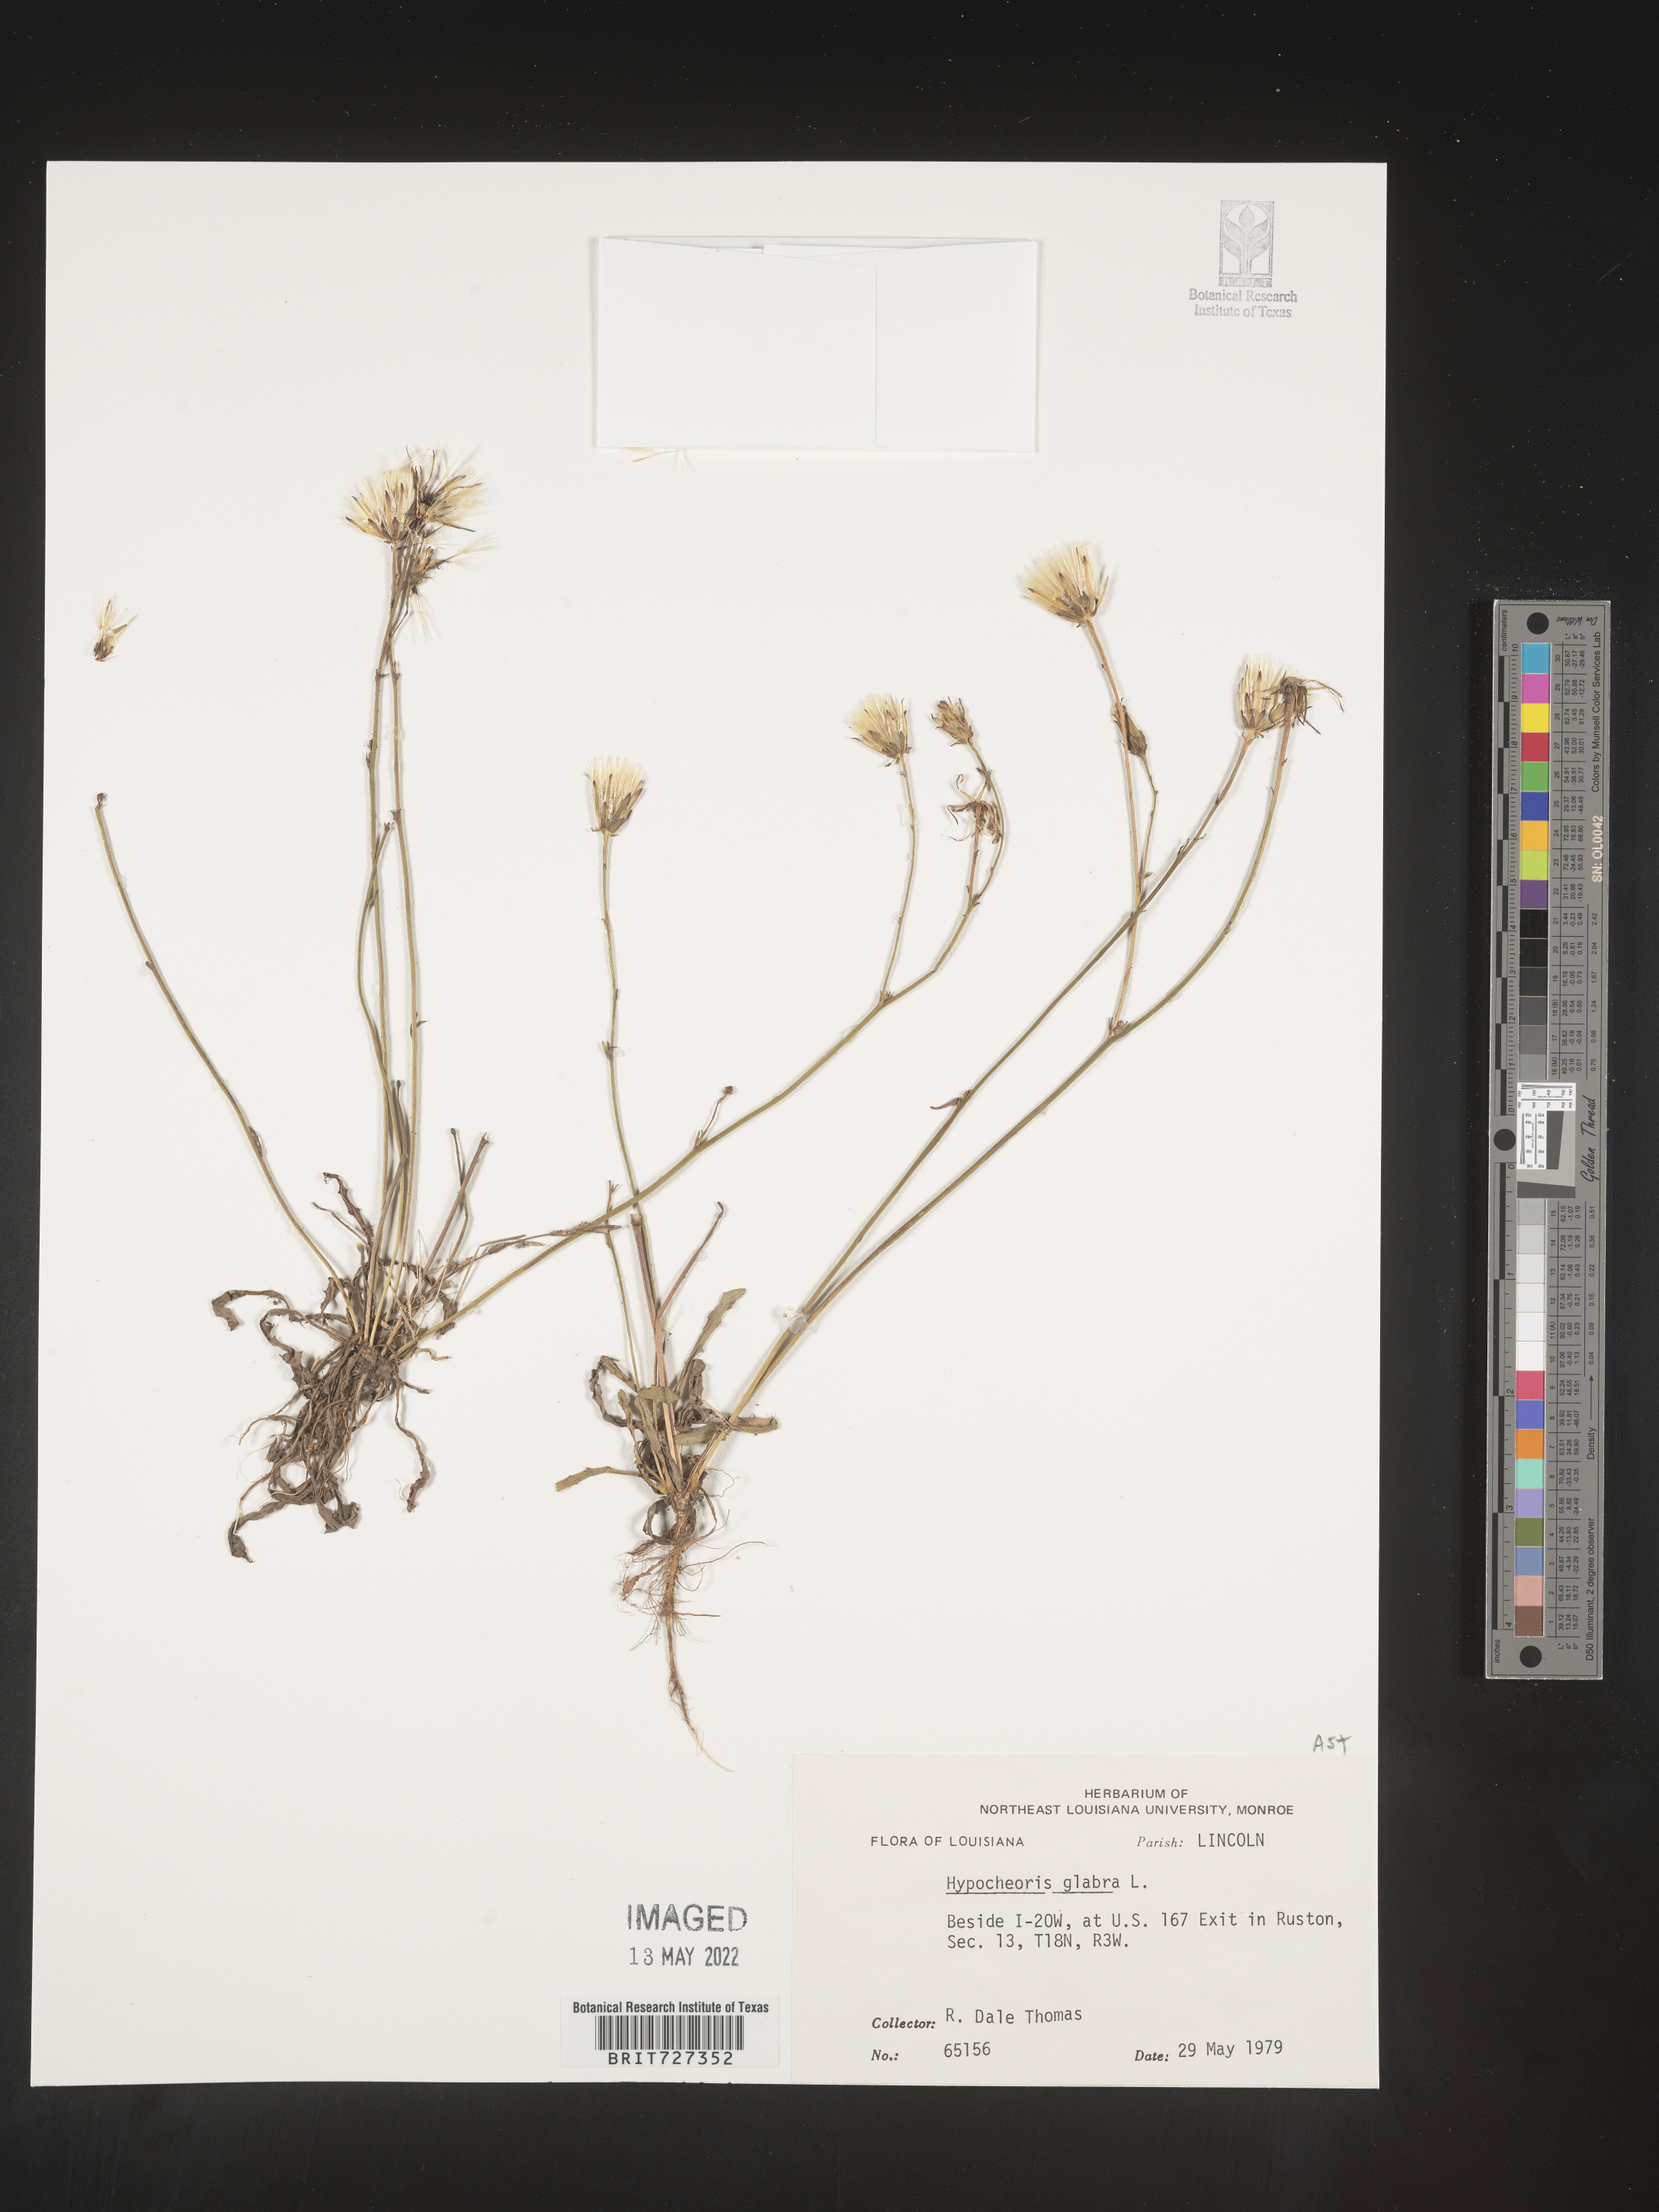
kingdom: Plantae
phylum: Tracheophyta
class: Magnoliopsida
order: Asterales
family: Asteraceae
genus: Hypochaeris
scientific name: Hypochaeris glabra
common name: Smooth catsear
